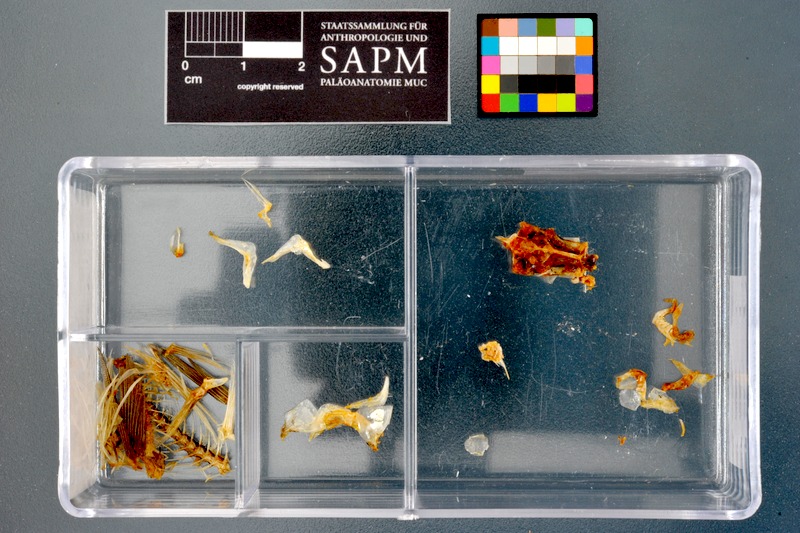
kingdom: Animalia
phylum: Chordata
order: Cypriniformes
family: Cyprinidae
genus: Enteromius
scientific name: Enteromius perince
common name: Three spot barb
